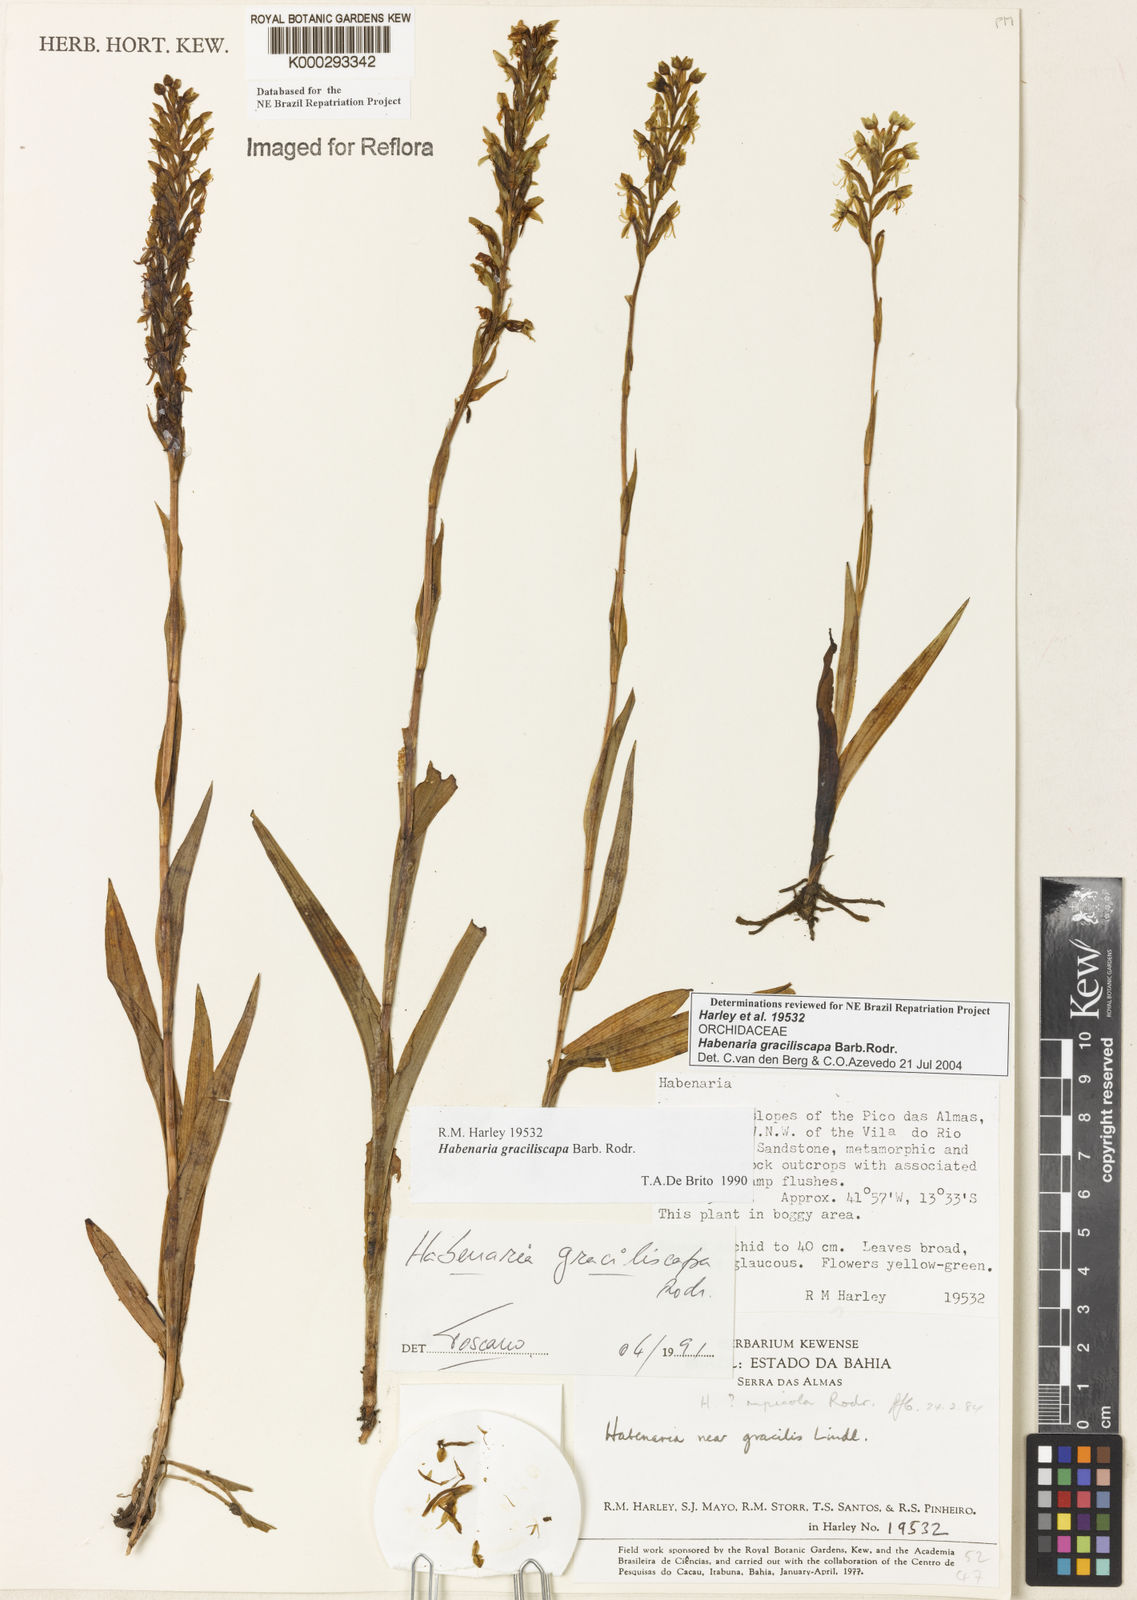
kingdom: Plantae
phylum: Tracheophyta
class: Liliopsida
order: Asparagales
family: Orchidaceae
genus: Habenaria
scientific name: Habenaria imbricata
